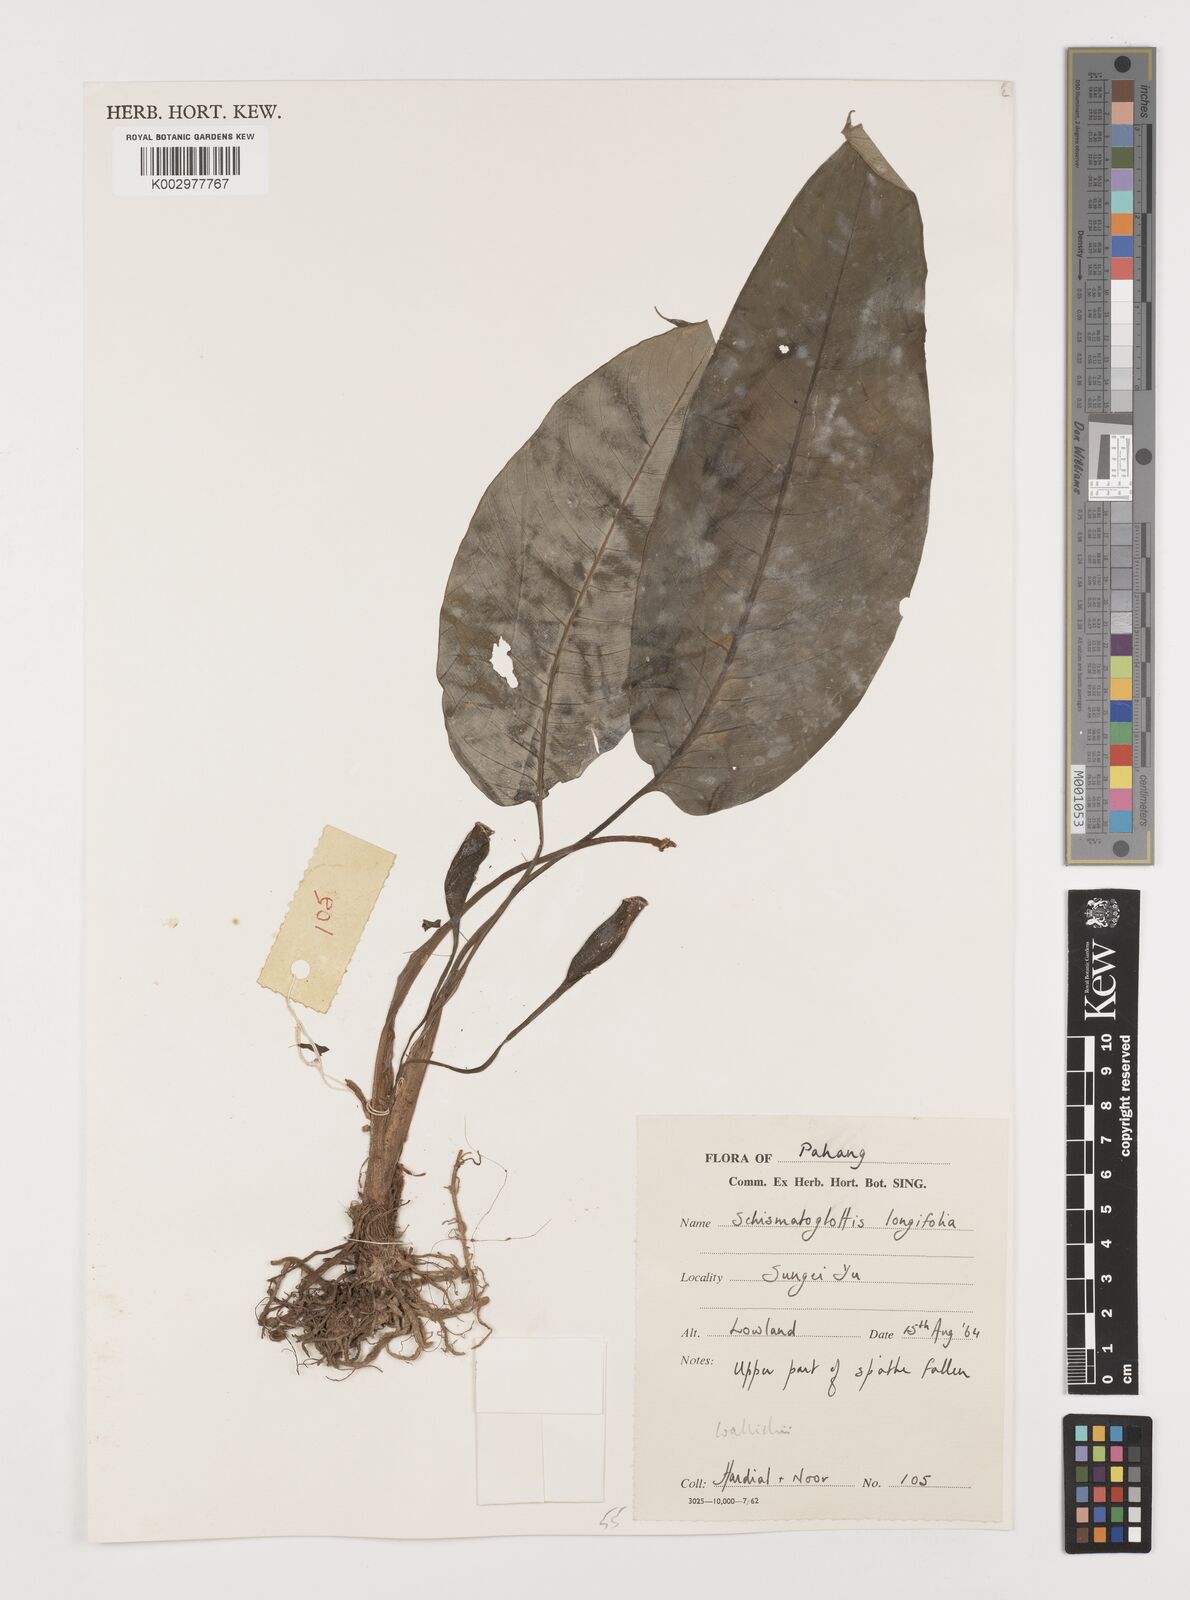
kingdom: Plantae
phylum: Tracheophyta
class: Liliopsida
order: Alismatales
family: Araceae
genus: Schismatoglottis
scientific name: Schismatoglottis wallichii
